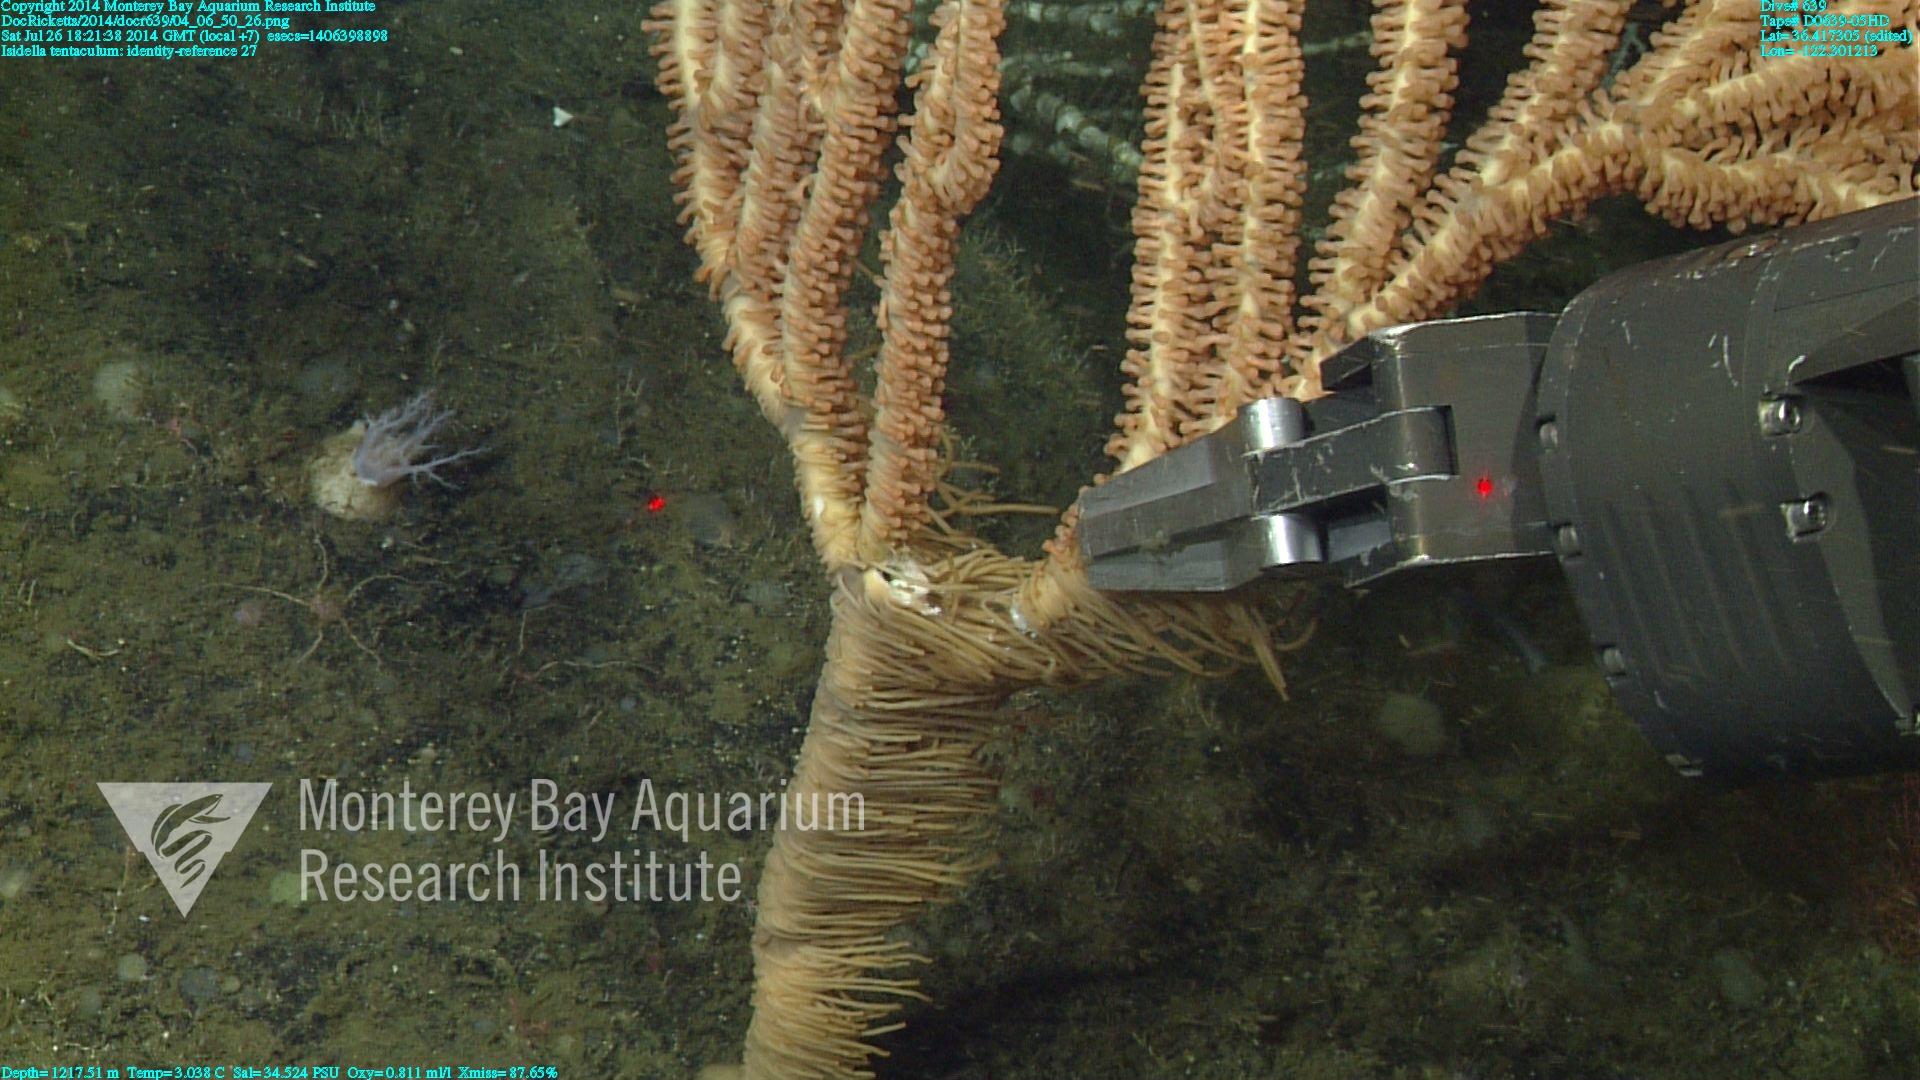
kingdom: Animalia
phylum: Cnidaria
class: Anthozoa
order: Scleralcyonacea
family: Keratoisididae
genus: Isidella
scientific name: Isidella tentaculum
